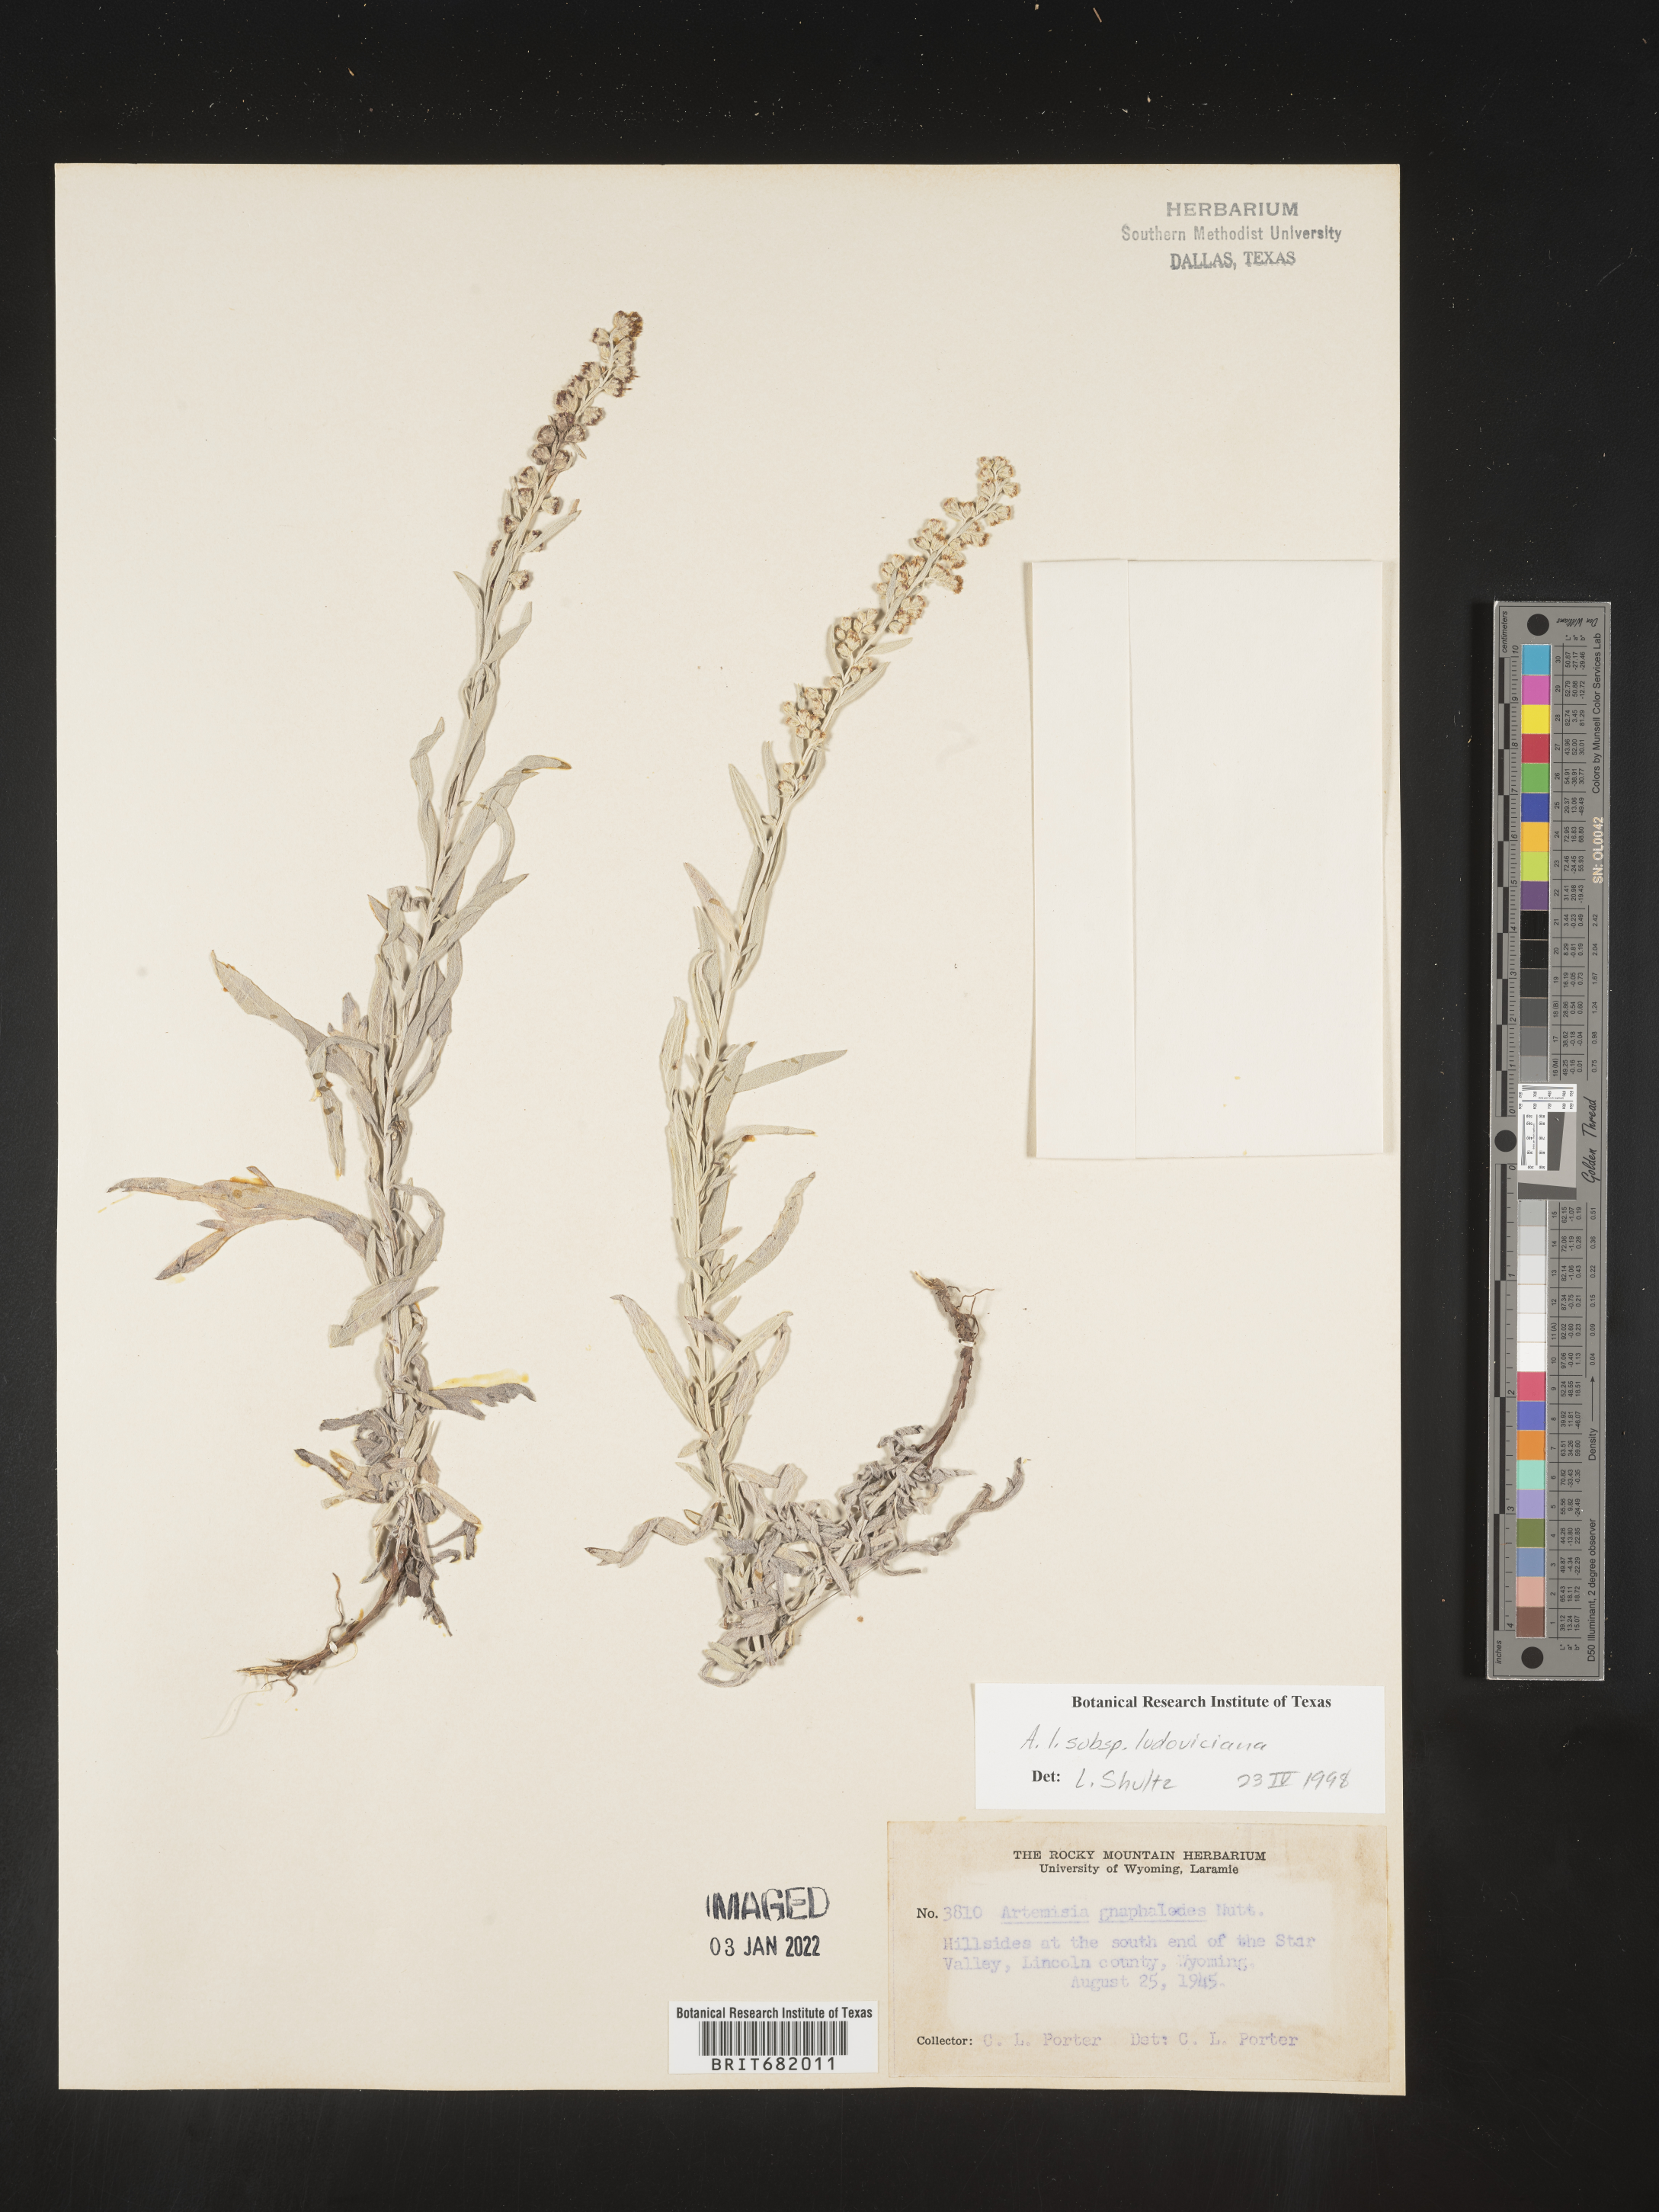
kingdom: Plantae
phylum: Tracheophyta
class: Magnoliopsida
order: Asterales
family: Asteraceae
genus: Artemisia
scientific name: Artemisia ludoviciana
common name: Western mugwort
